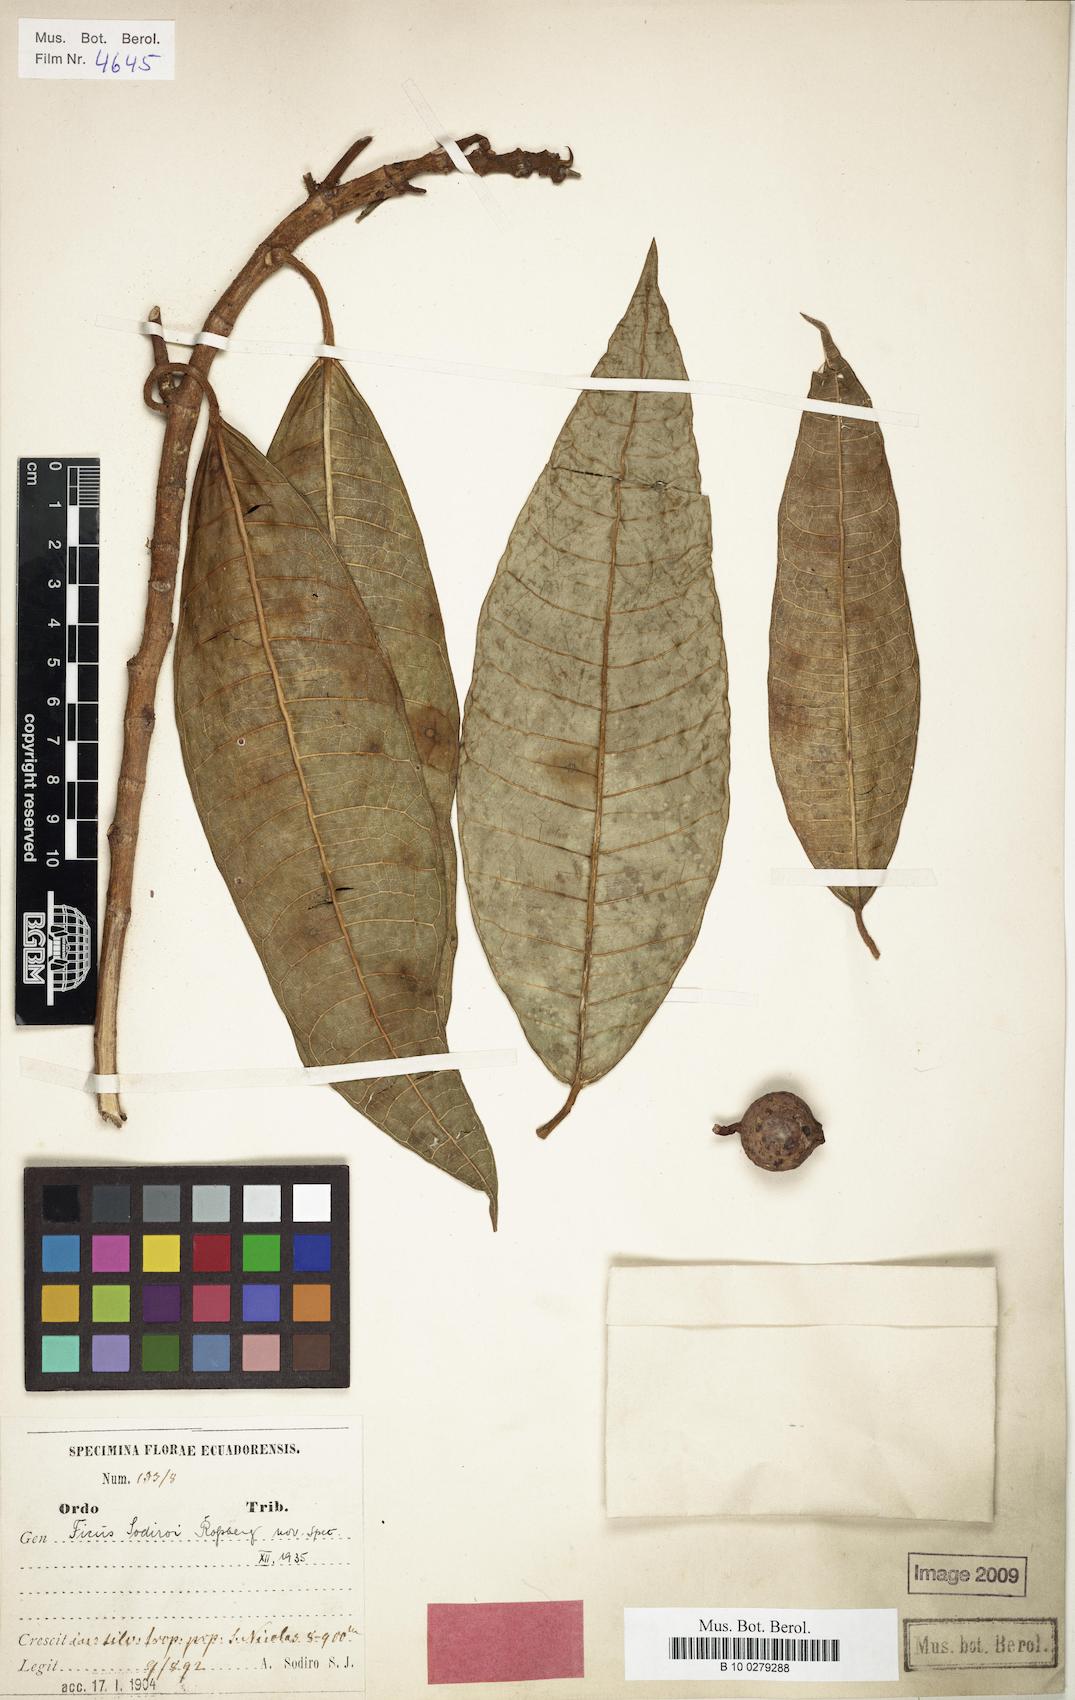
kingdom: Plantae
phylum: Tracheophyta
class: Magnoliopsida
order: Rosales
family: Moraceae
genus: Ficus
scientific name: Ficus sodiroi
